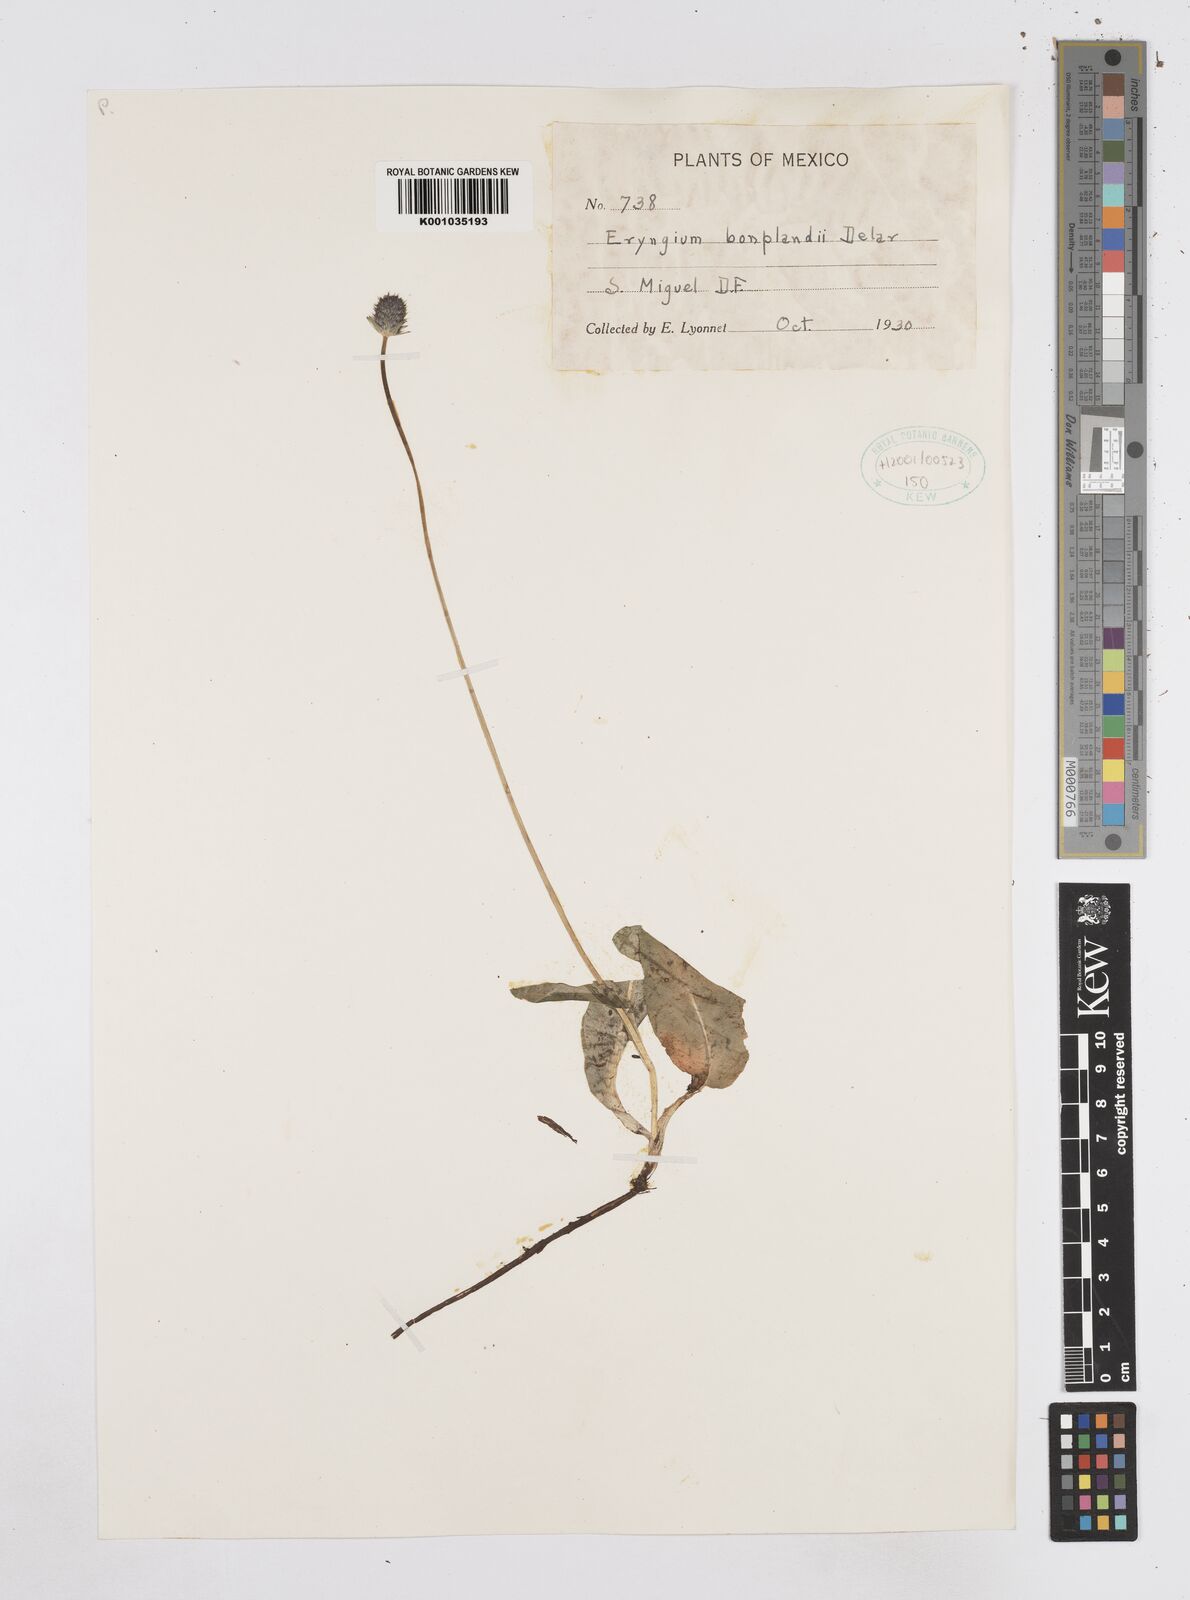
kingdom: Plantae
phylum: Tracheophyta
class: Magnoliopsida
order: Apiales
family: Apiaceae
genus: Eryngium
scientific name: Eryngium bonplandii
